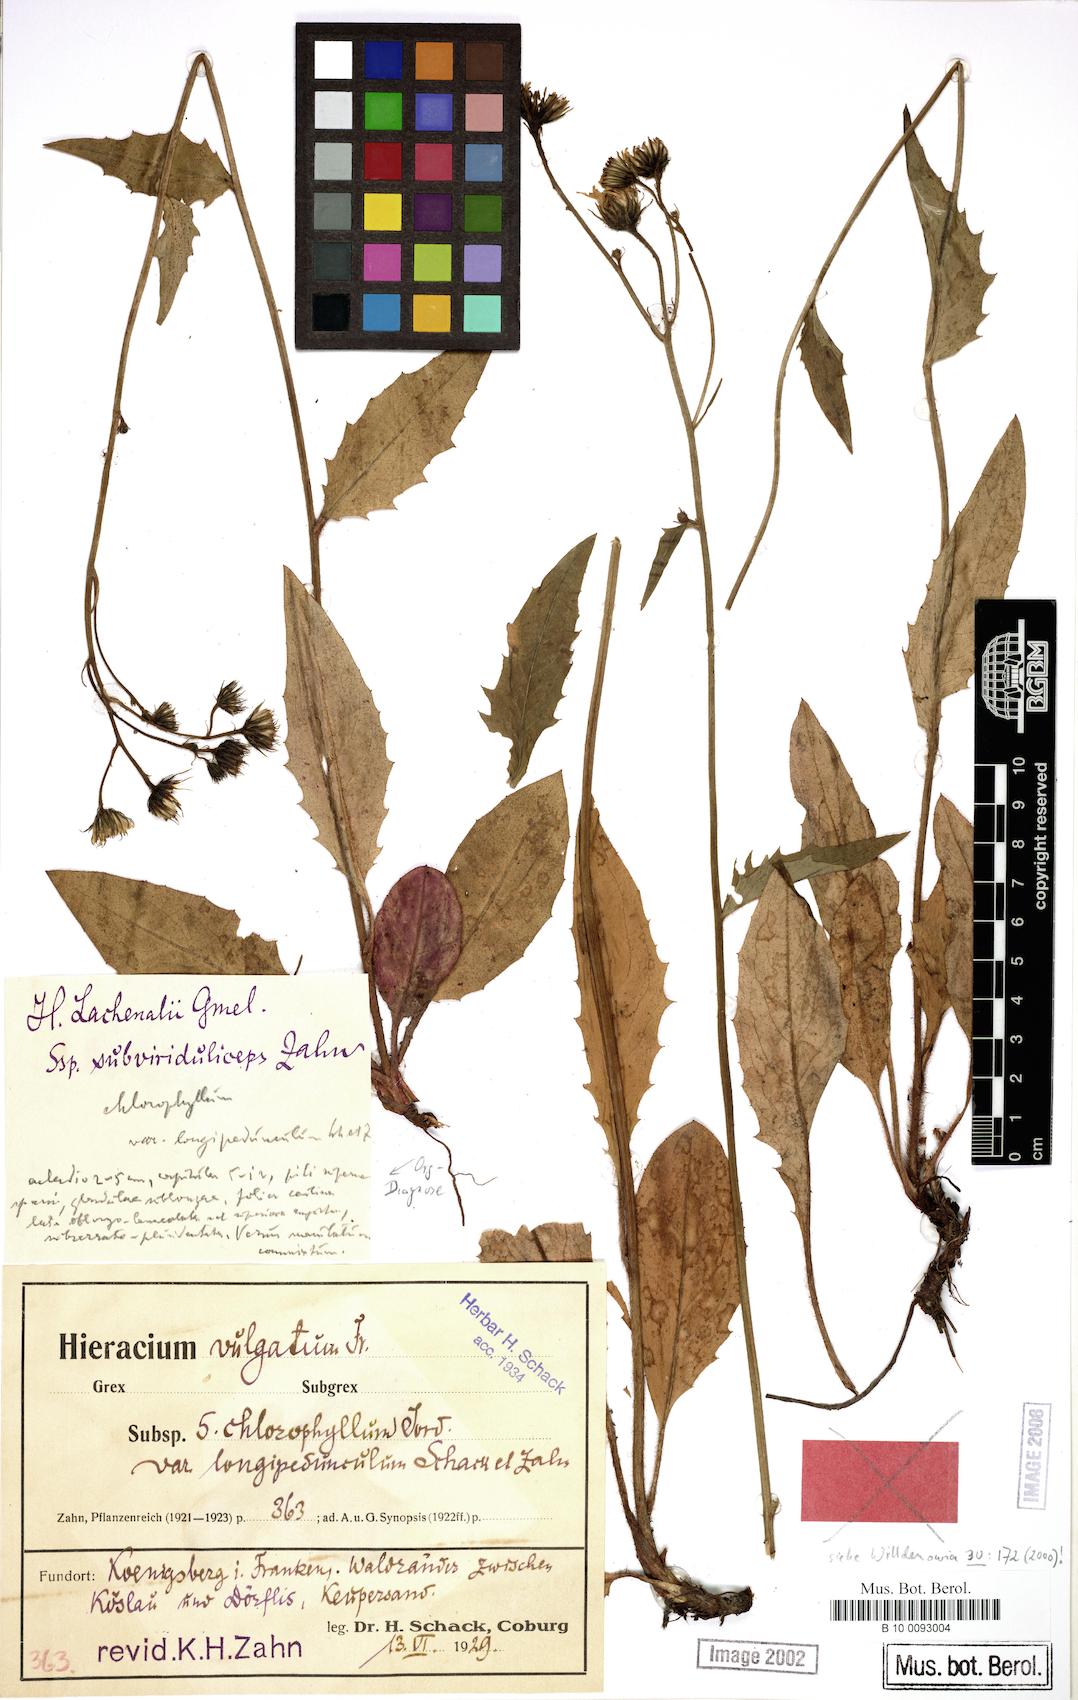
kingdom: Plantae
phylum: Tracheophyta
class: Magnoliopsida
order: Asterales
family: Asteraceae
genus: Hieracium
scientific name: Hieracium lachenalii
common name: Common hawkweed
